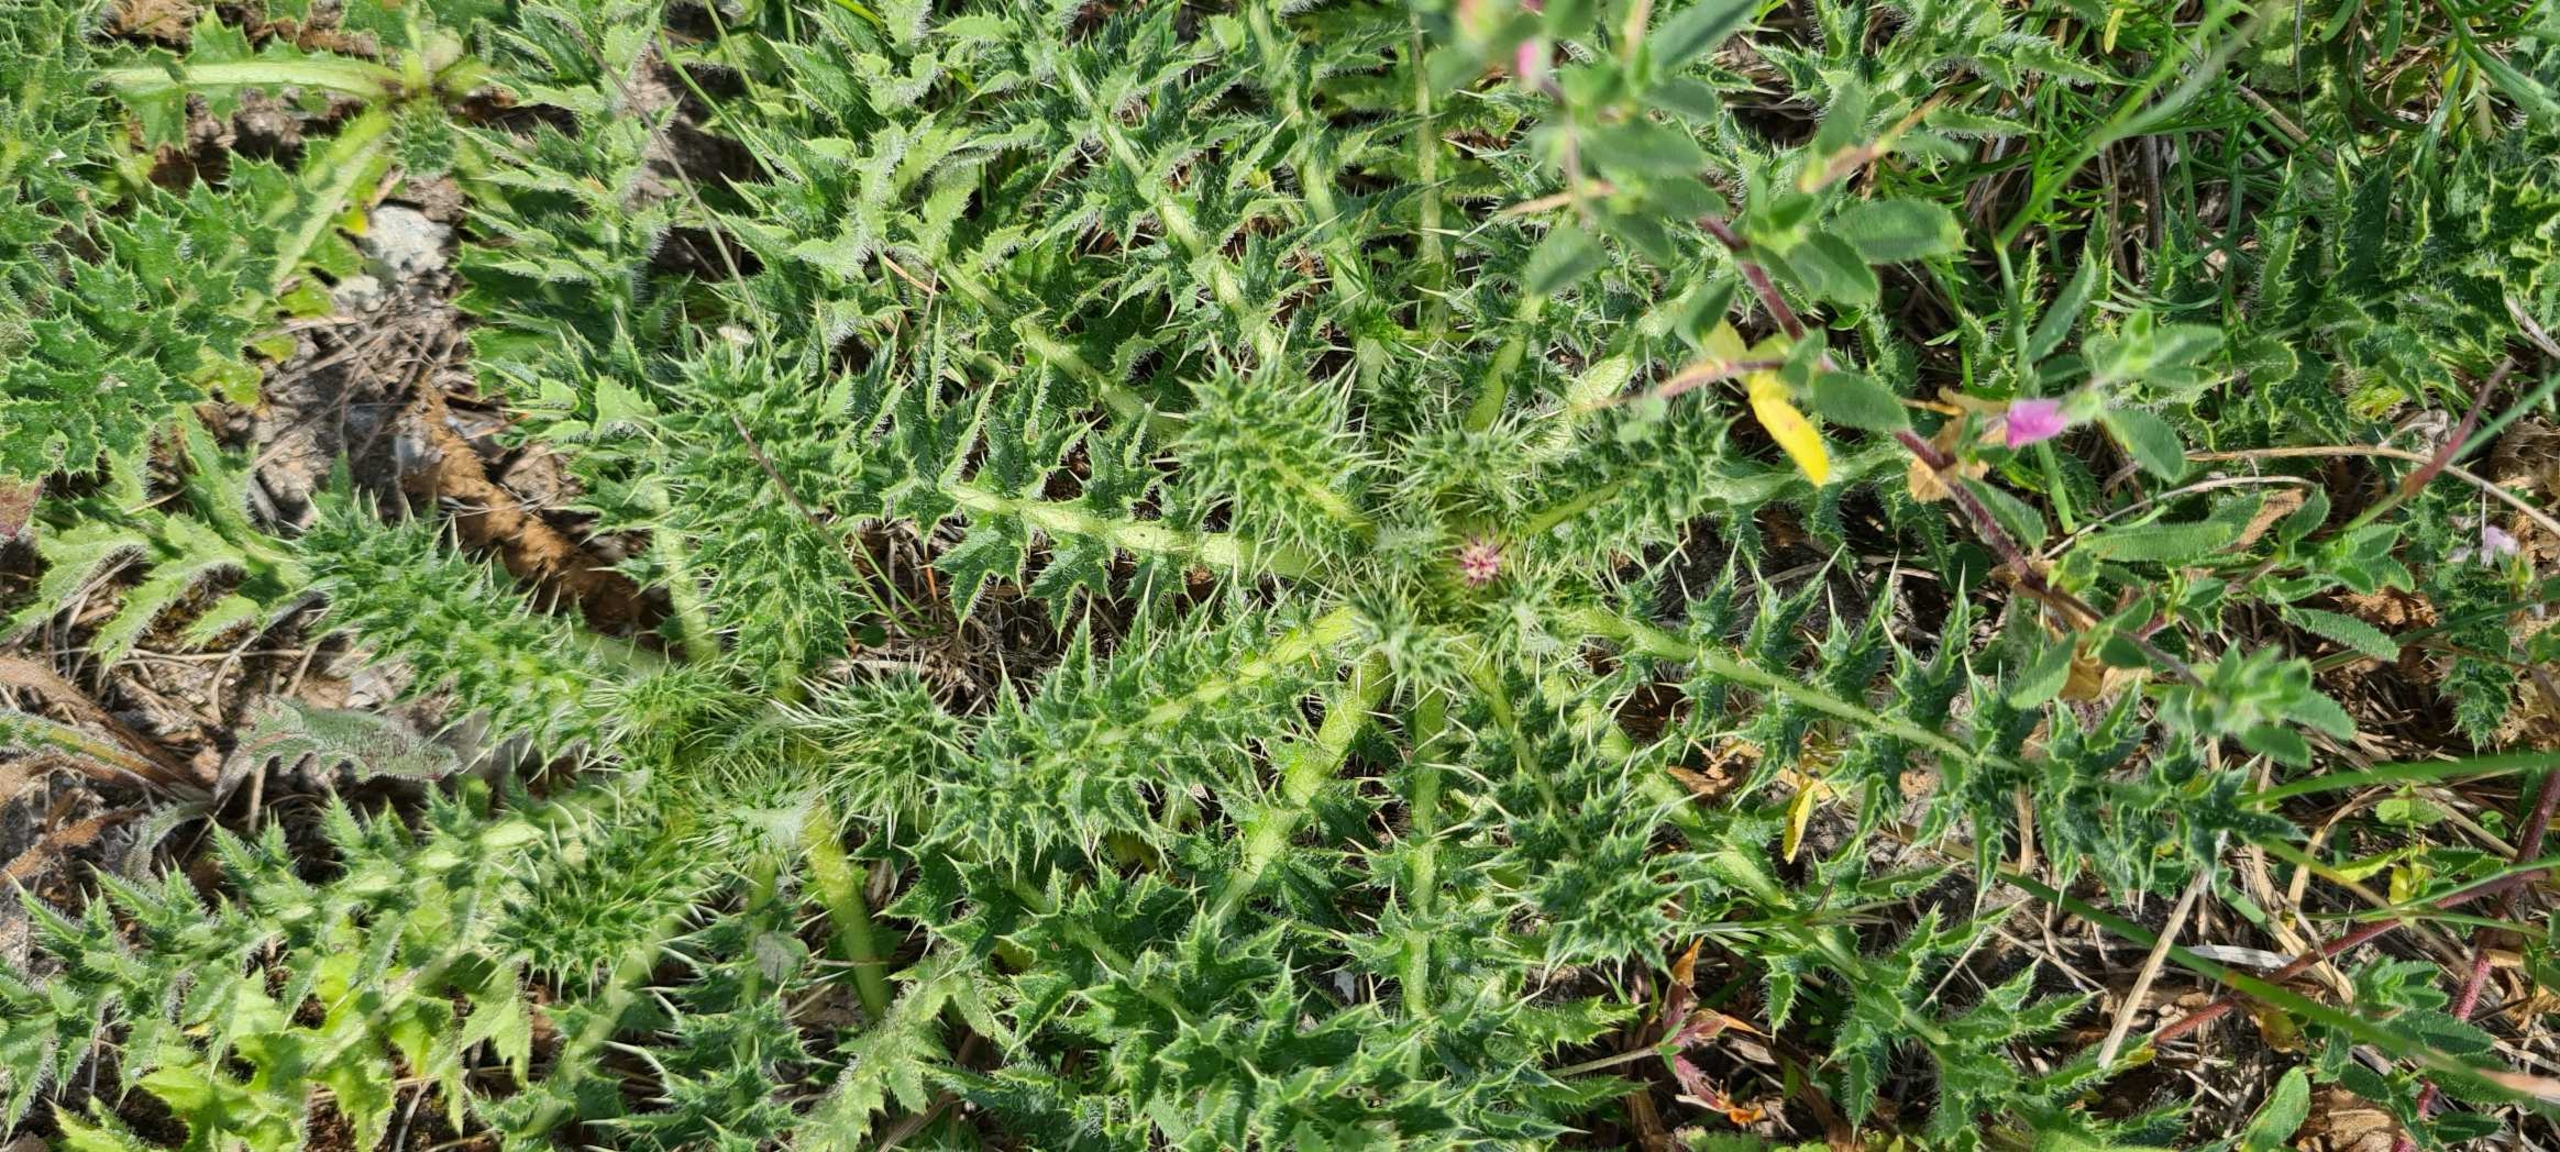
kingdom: Plantae
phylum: Tracheophyta
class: Magnoliopsida
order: Asterales
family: Asteraceae
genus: Cirsium
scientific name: Cirsium acaule
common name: Lav tidsel
